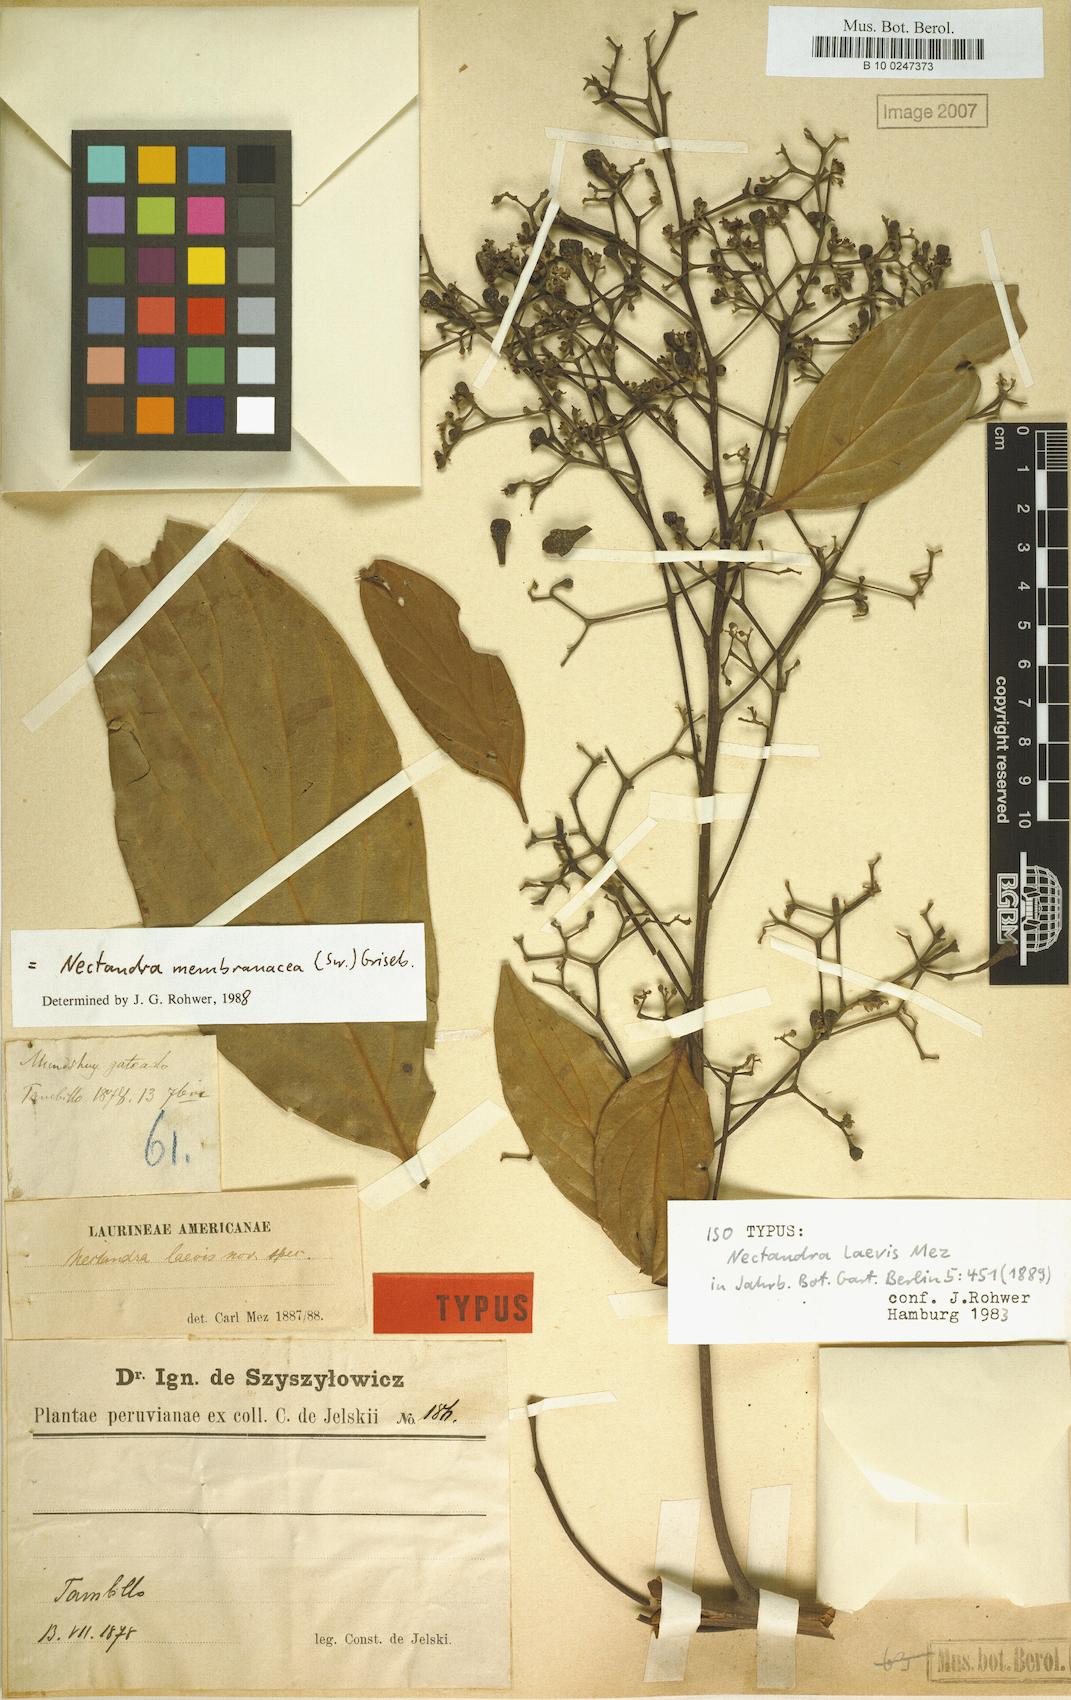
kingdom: Plantae
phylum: Tracheophyta
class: Magnoliopsida
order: Laurales
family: Lauraceae
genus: Nectandra
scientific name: Nectandra membranacea
